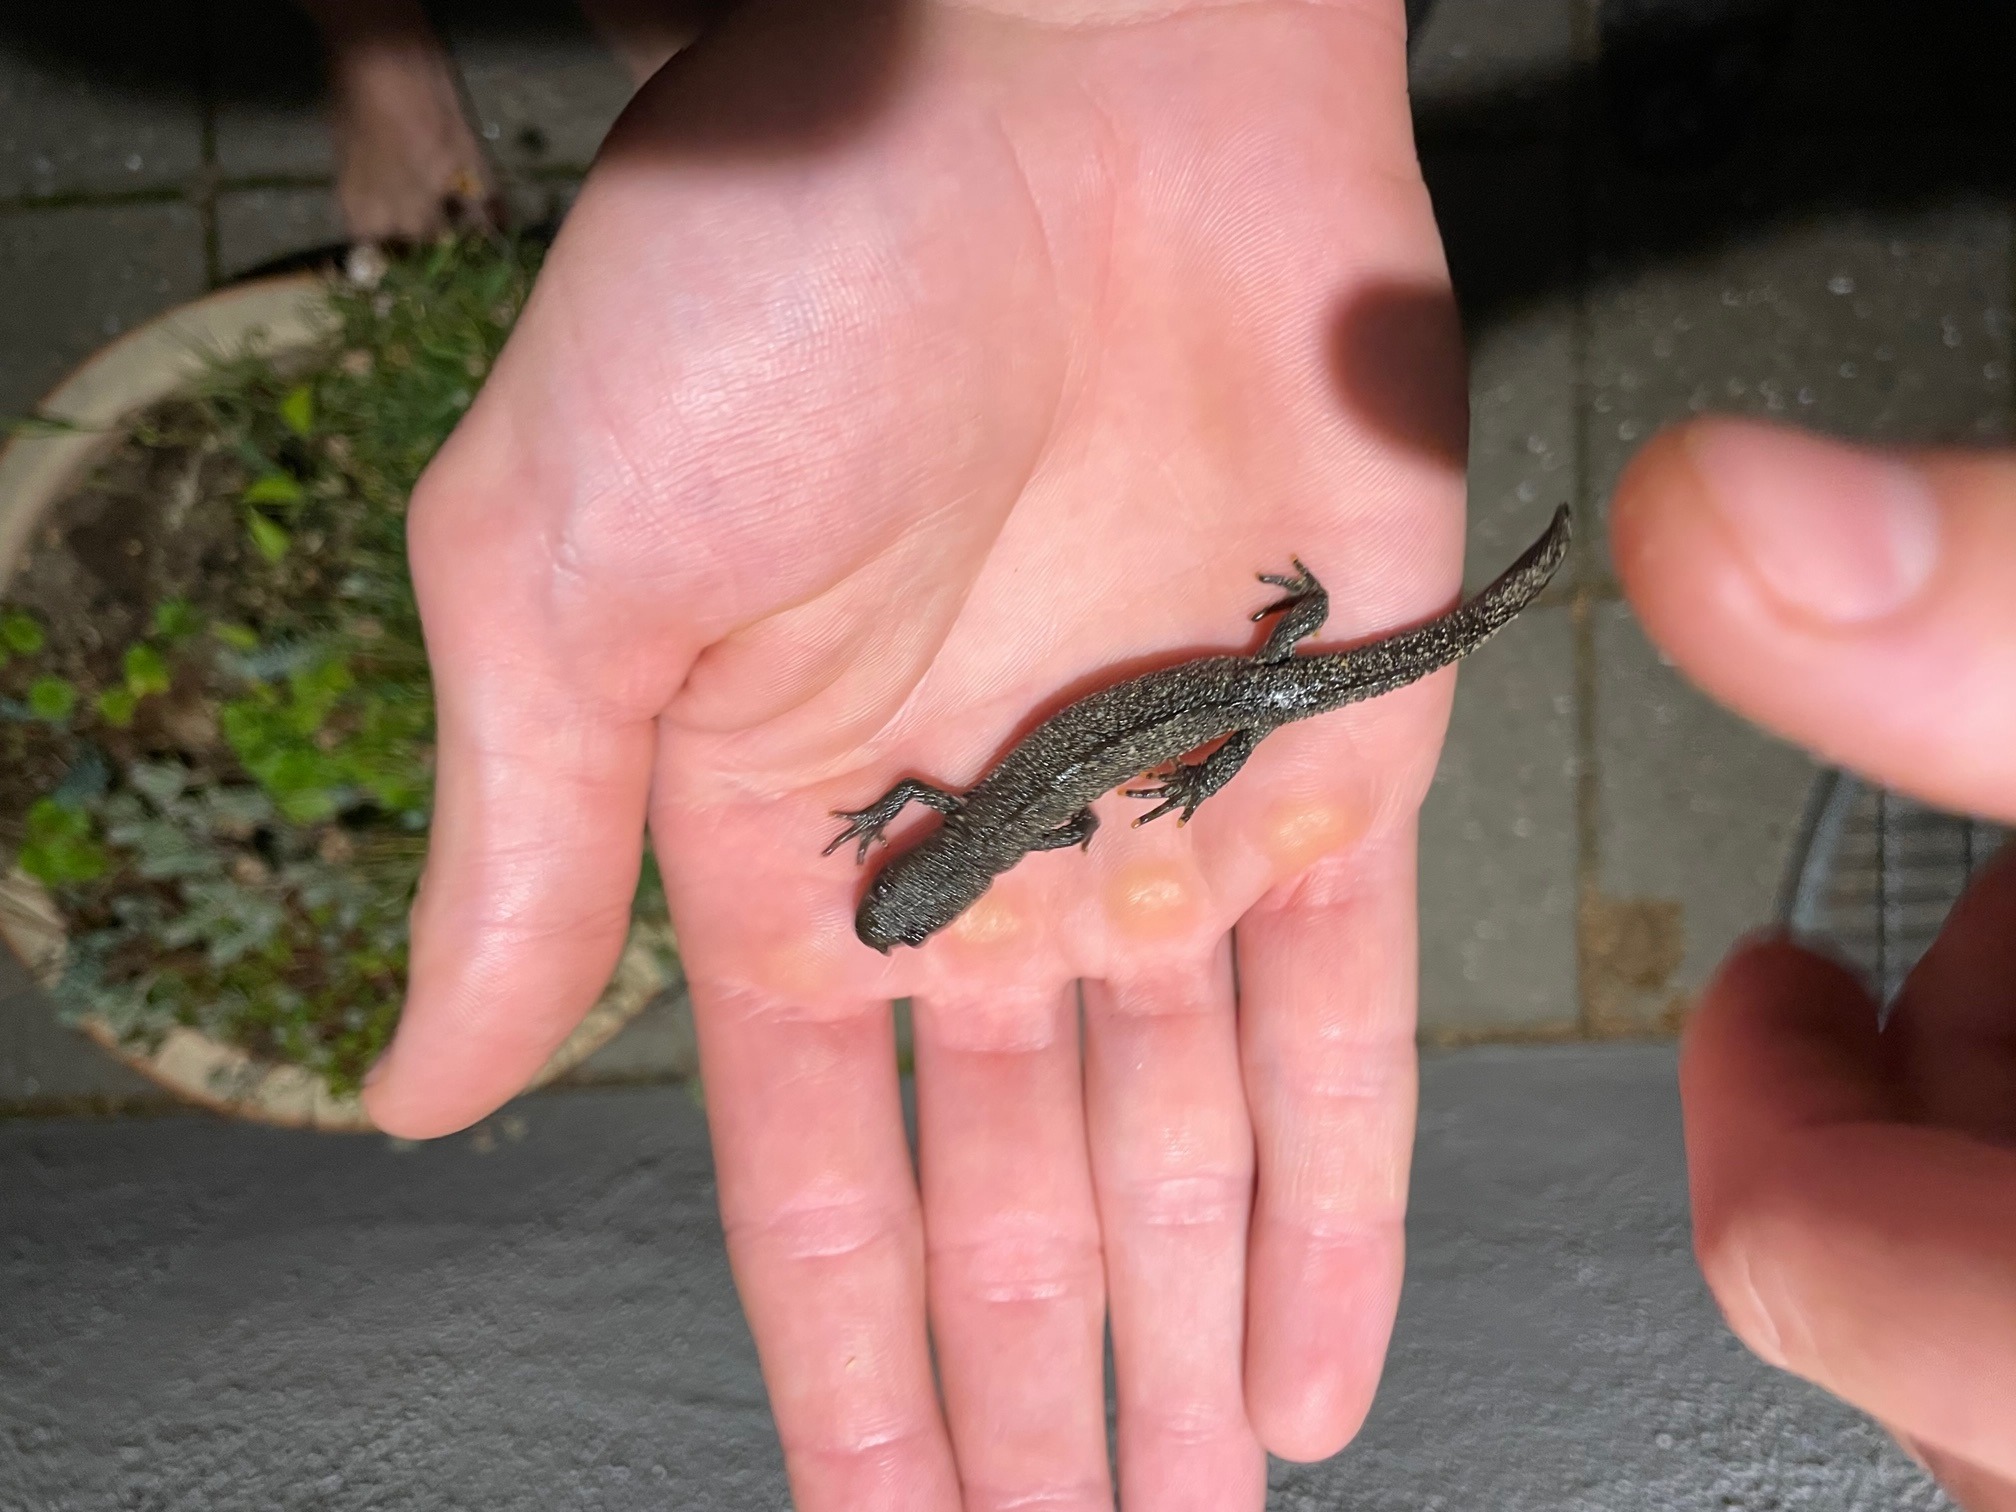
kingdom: Animalia
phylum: Chordata
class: Amphibia
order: Caudata
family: Salamandridae
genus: Triturus
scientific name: Triturus cristatus
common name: Stor vandsalamander
